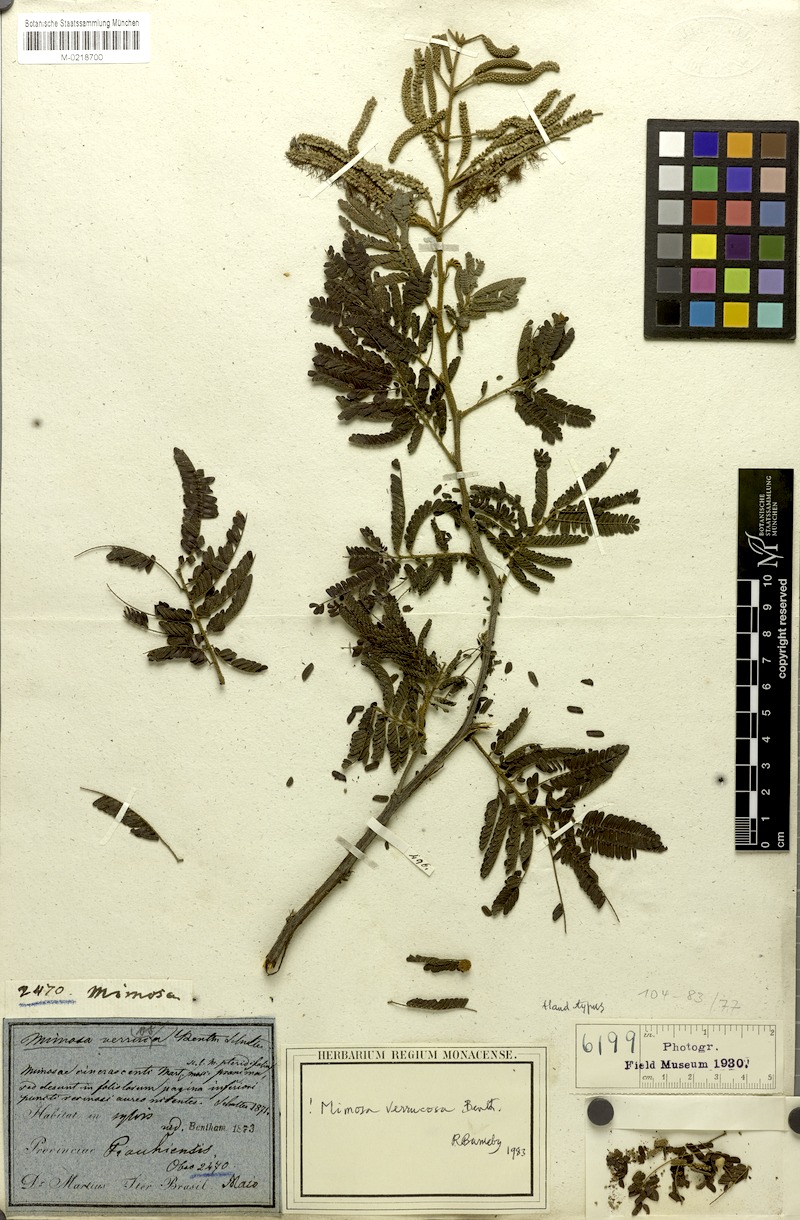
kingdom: Plantae
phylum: Tracheophyta
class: Magnoliopsida
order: Fabales
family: Fabaceae
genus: Mimosa
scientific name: Mimosa verrucosa
